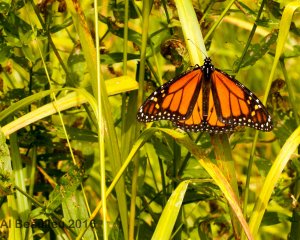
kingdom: Animalia
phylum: Arthropoda
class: Insecta
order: Lepidoptera
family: Nymphalidae
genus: Danaus
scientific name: Danaus plexippus
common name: Monarch
